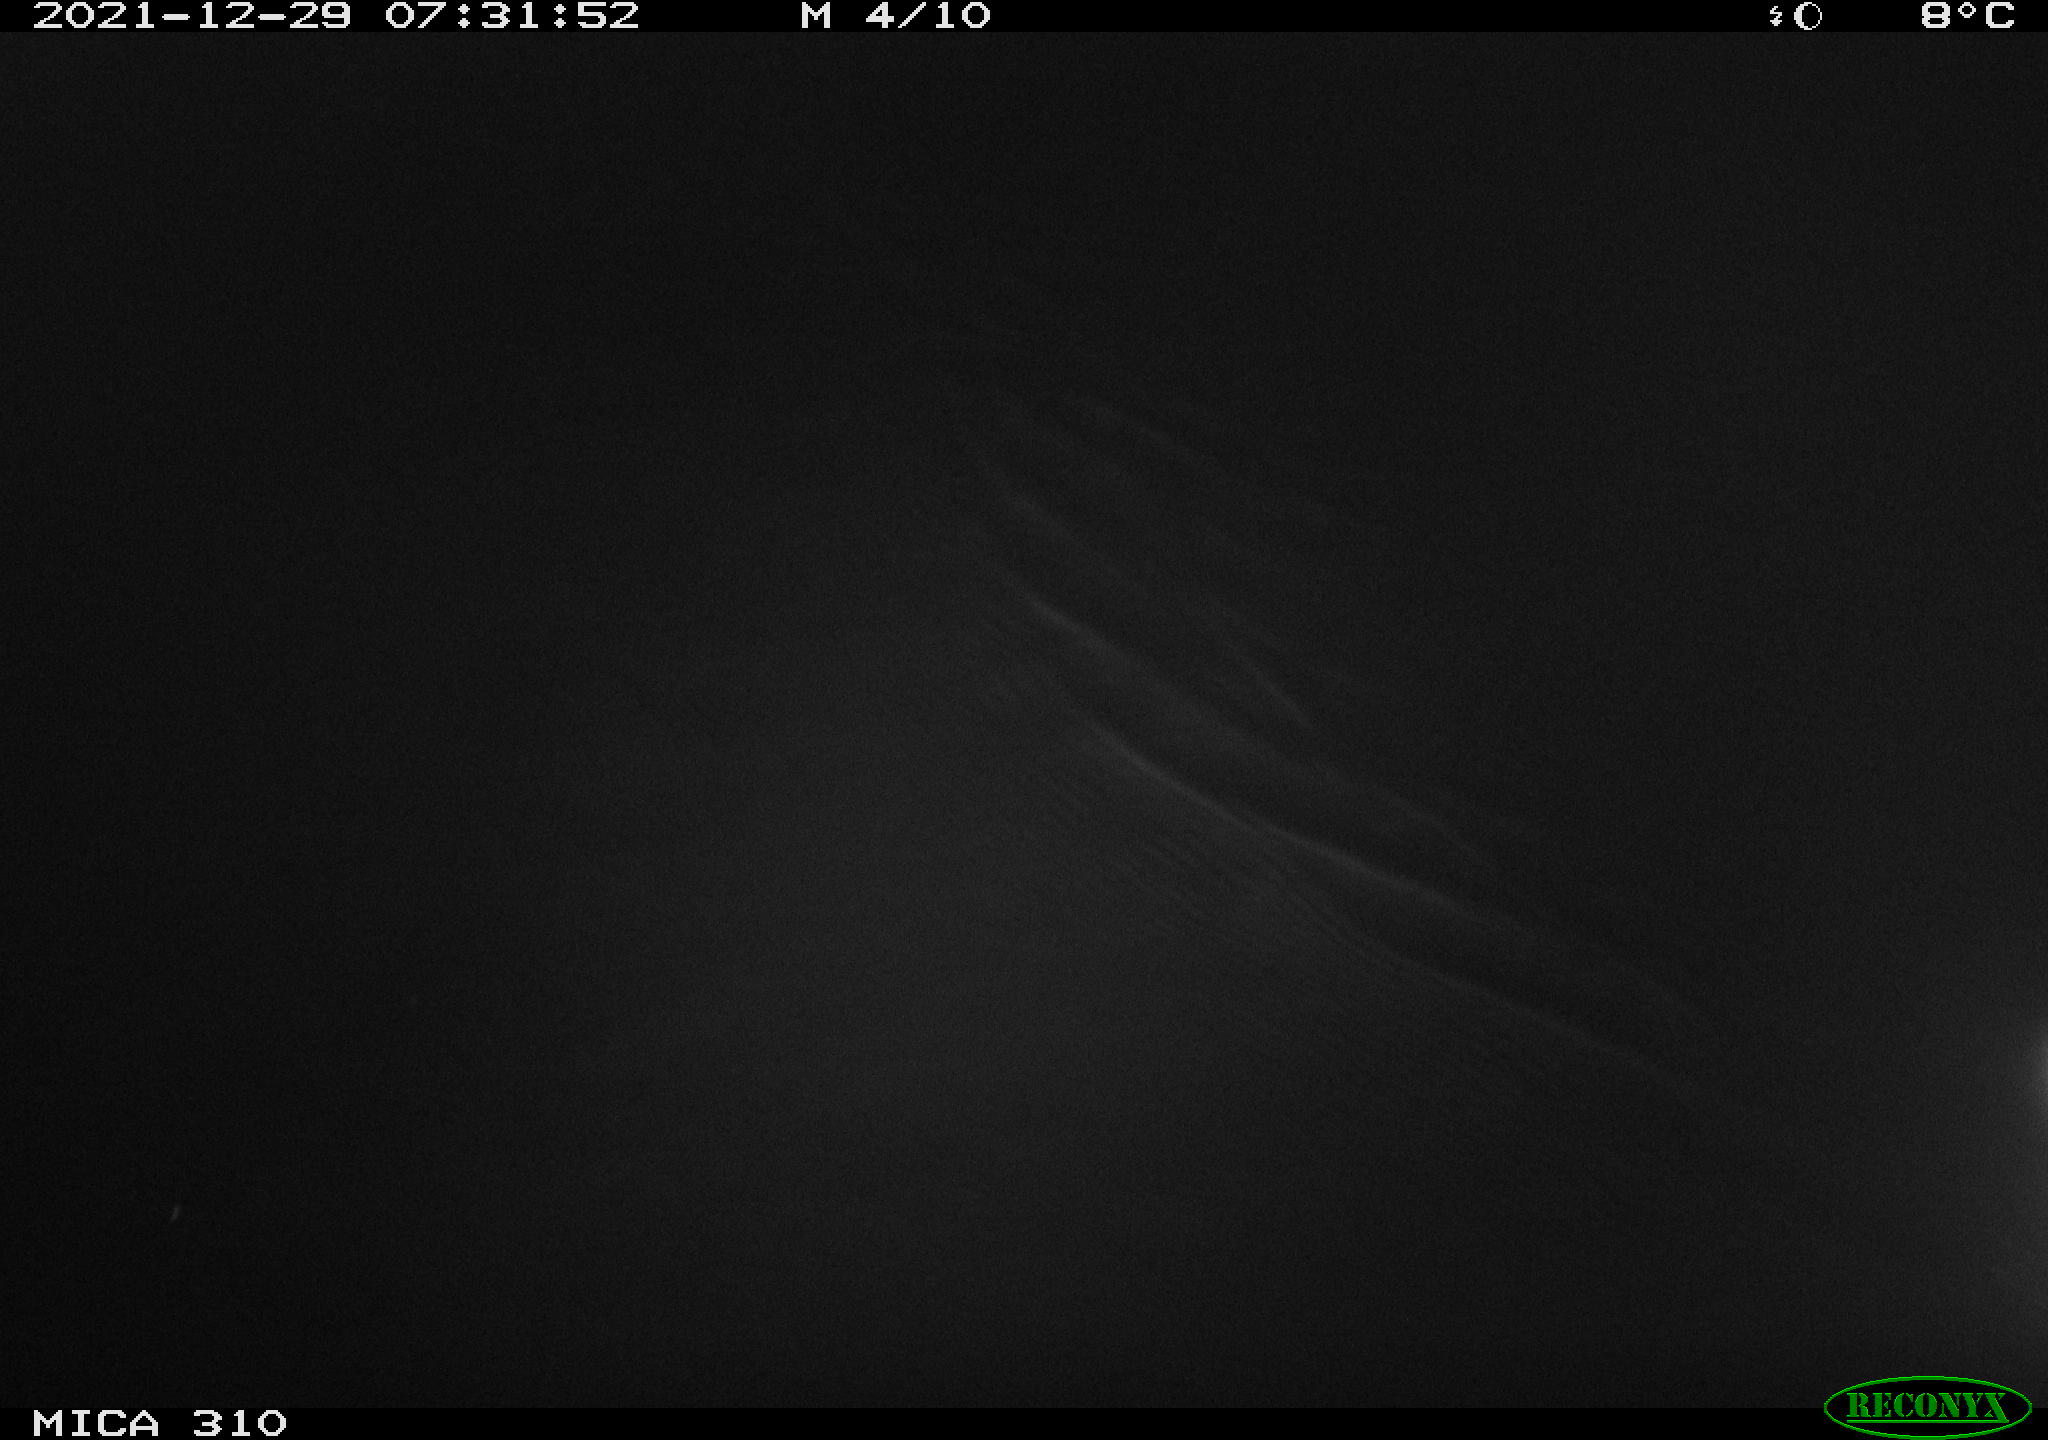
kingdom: Animalia
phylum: Chordata
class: Aves
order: Anseriformes
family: Anatidae
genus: Anas
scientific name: Anas platyrhynchos
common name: Mallard
